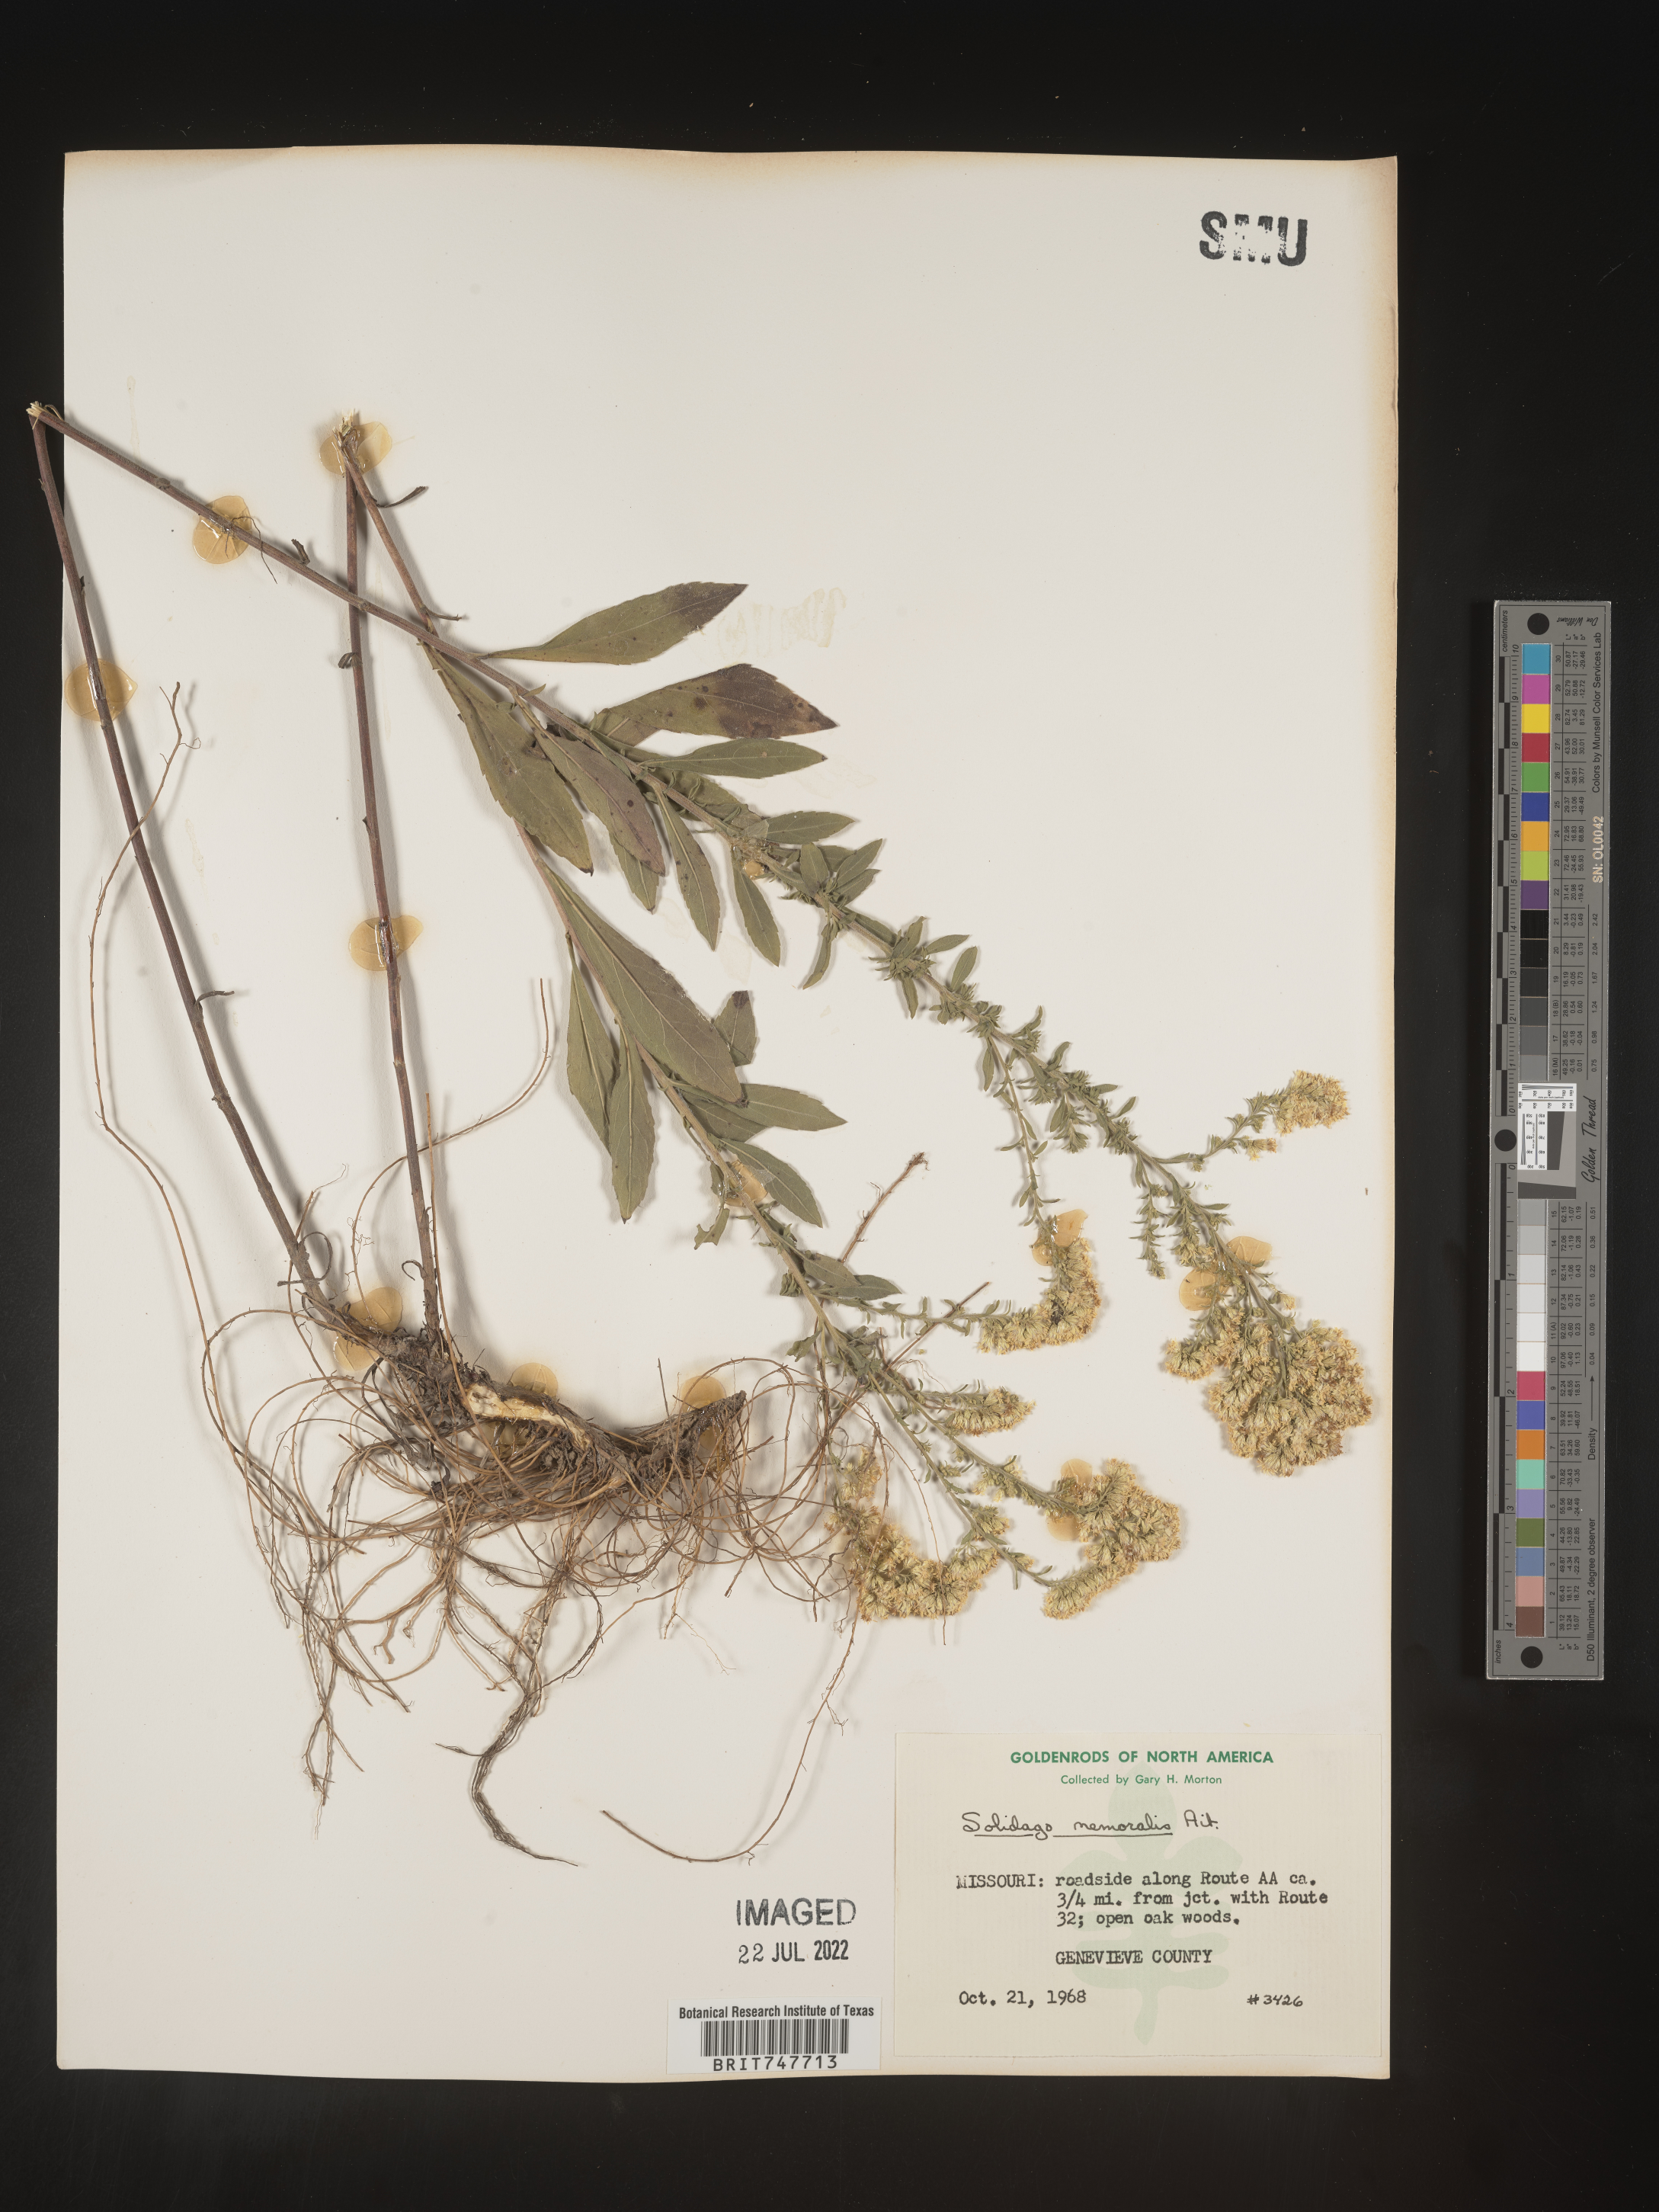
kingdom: Plantae
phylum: Tracheophyta
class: Magnoliopsida
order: Asterales
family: Asteraceae
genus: Solidago
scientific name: Solidago nemoralis
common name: Grey goldenrod
